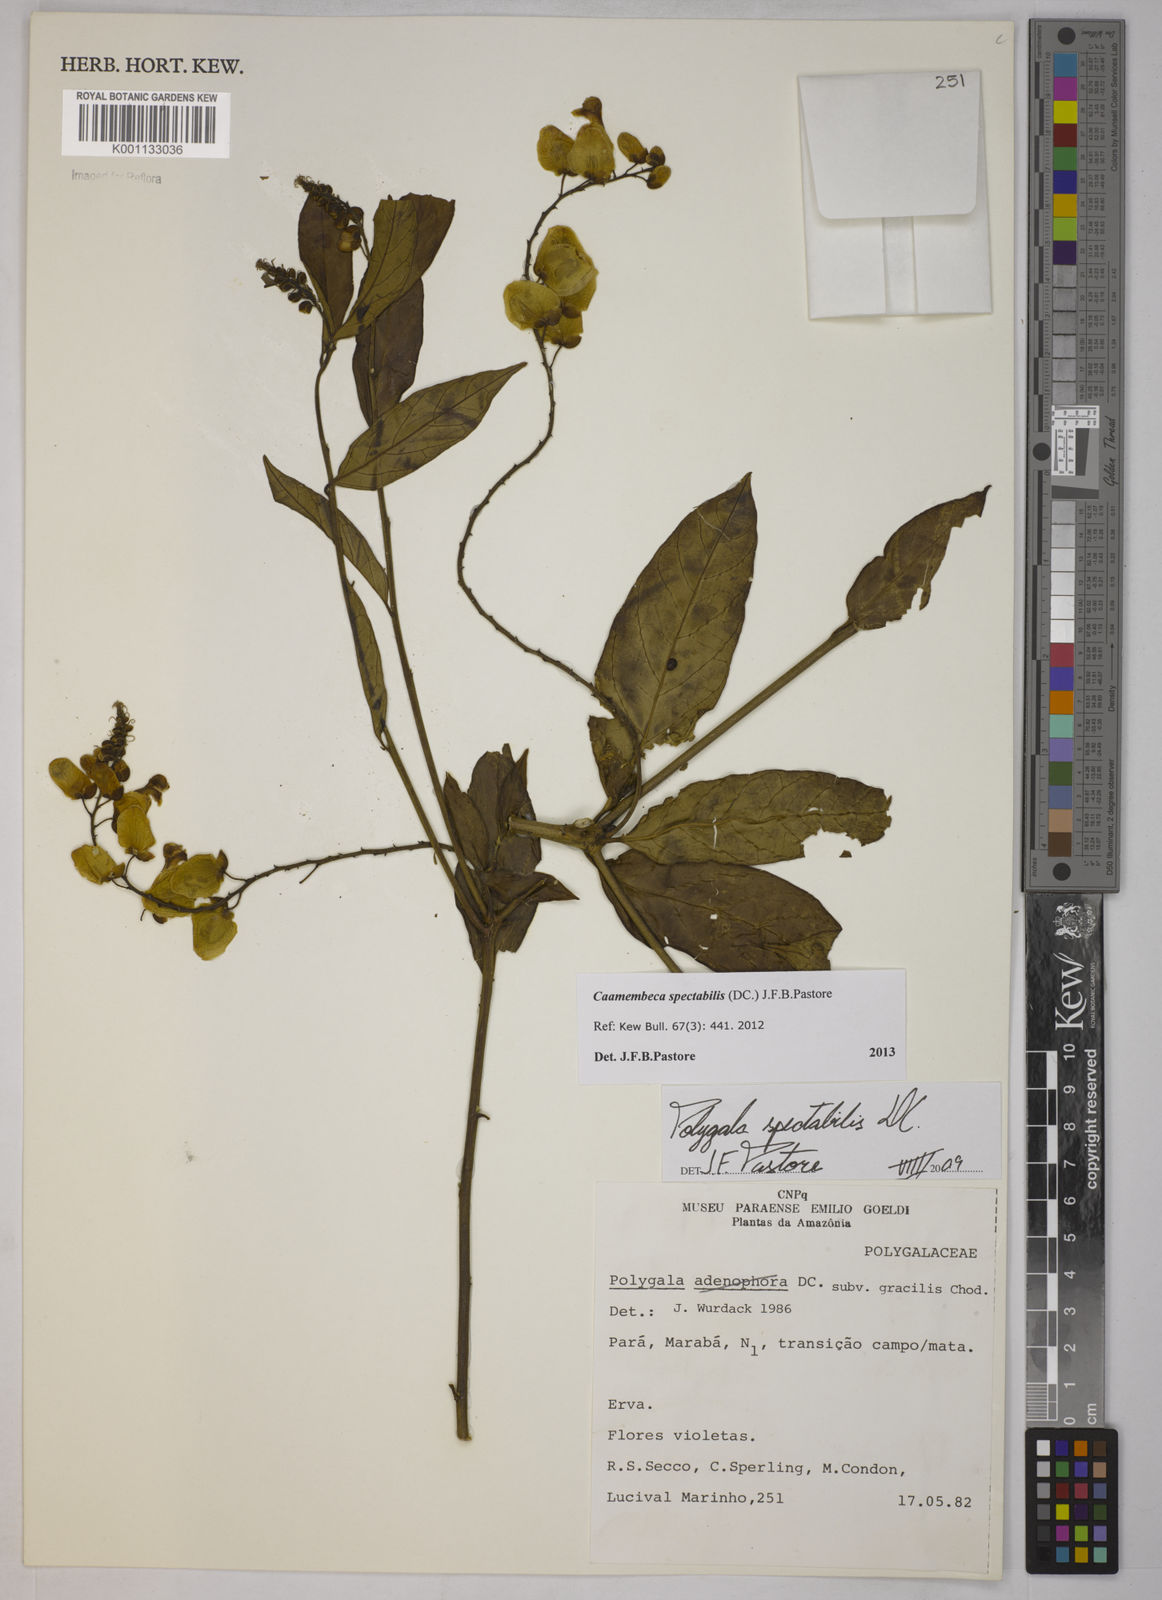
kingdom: Plantae
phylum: Tracheophyta
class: Magnoliopsida
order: Fabales
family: Polygalaceae
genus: Polygala
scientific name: Polygala
